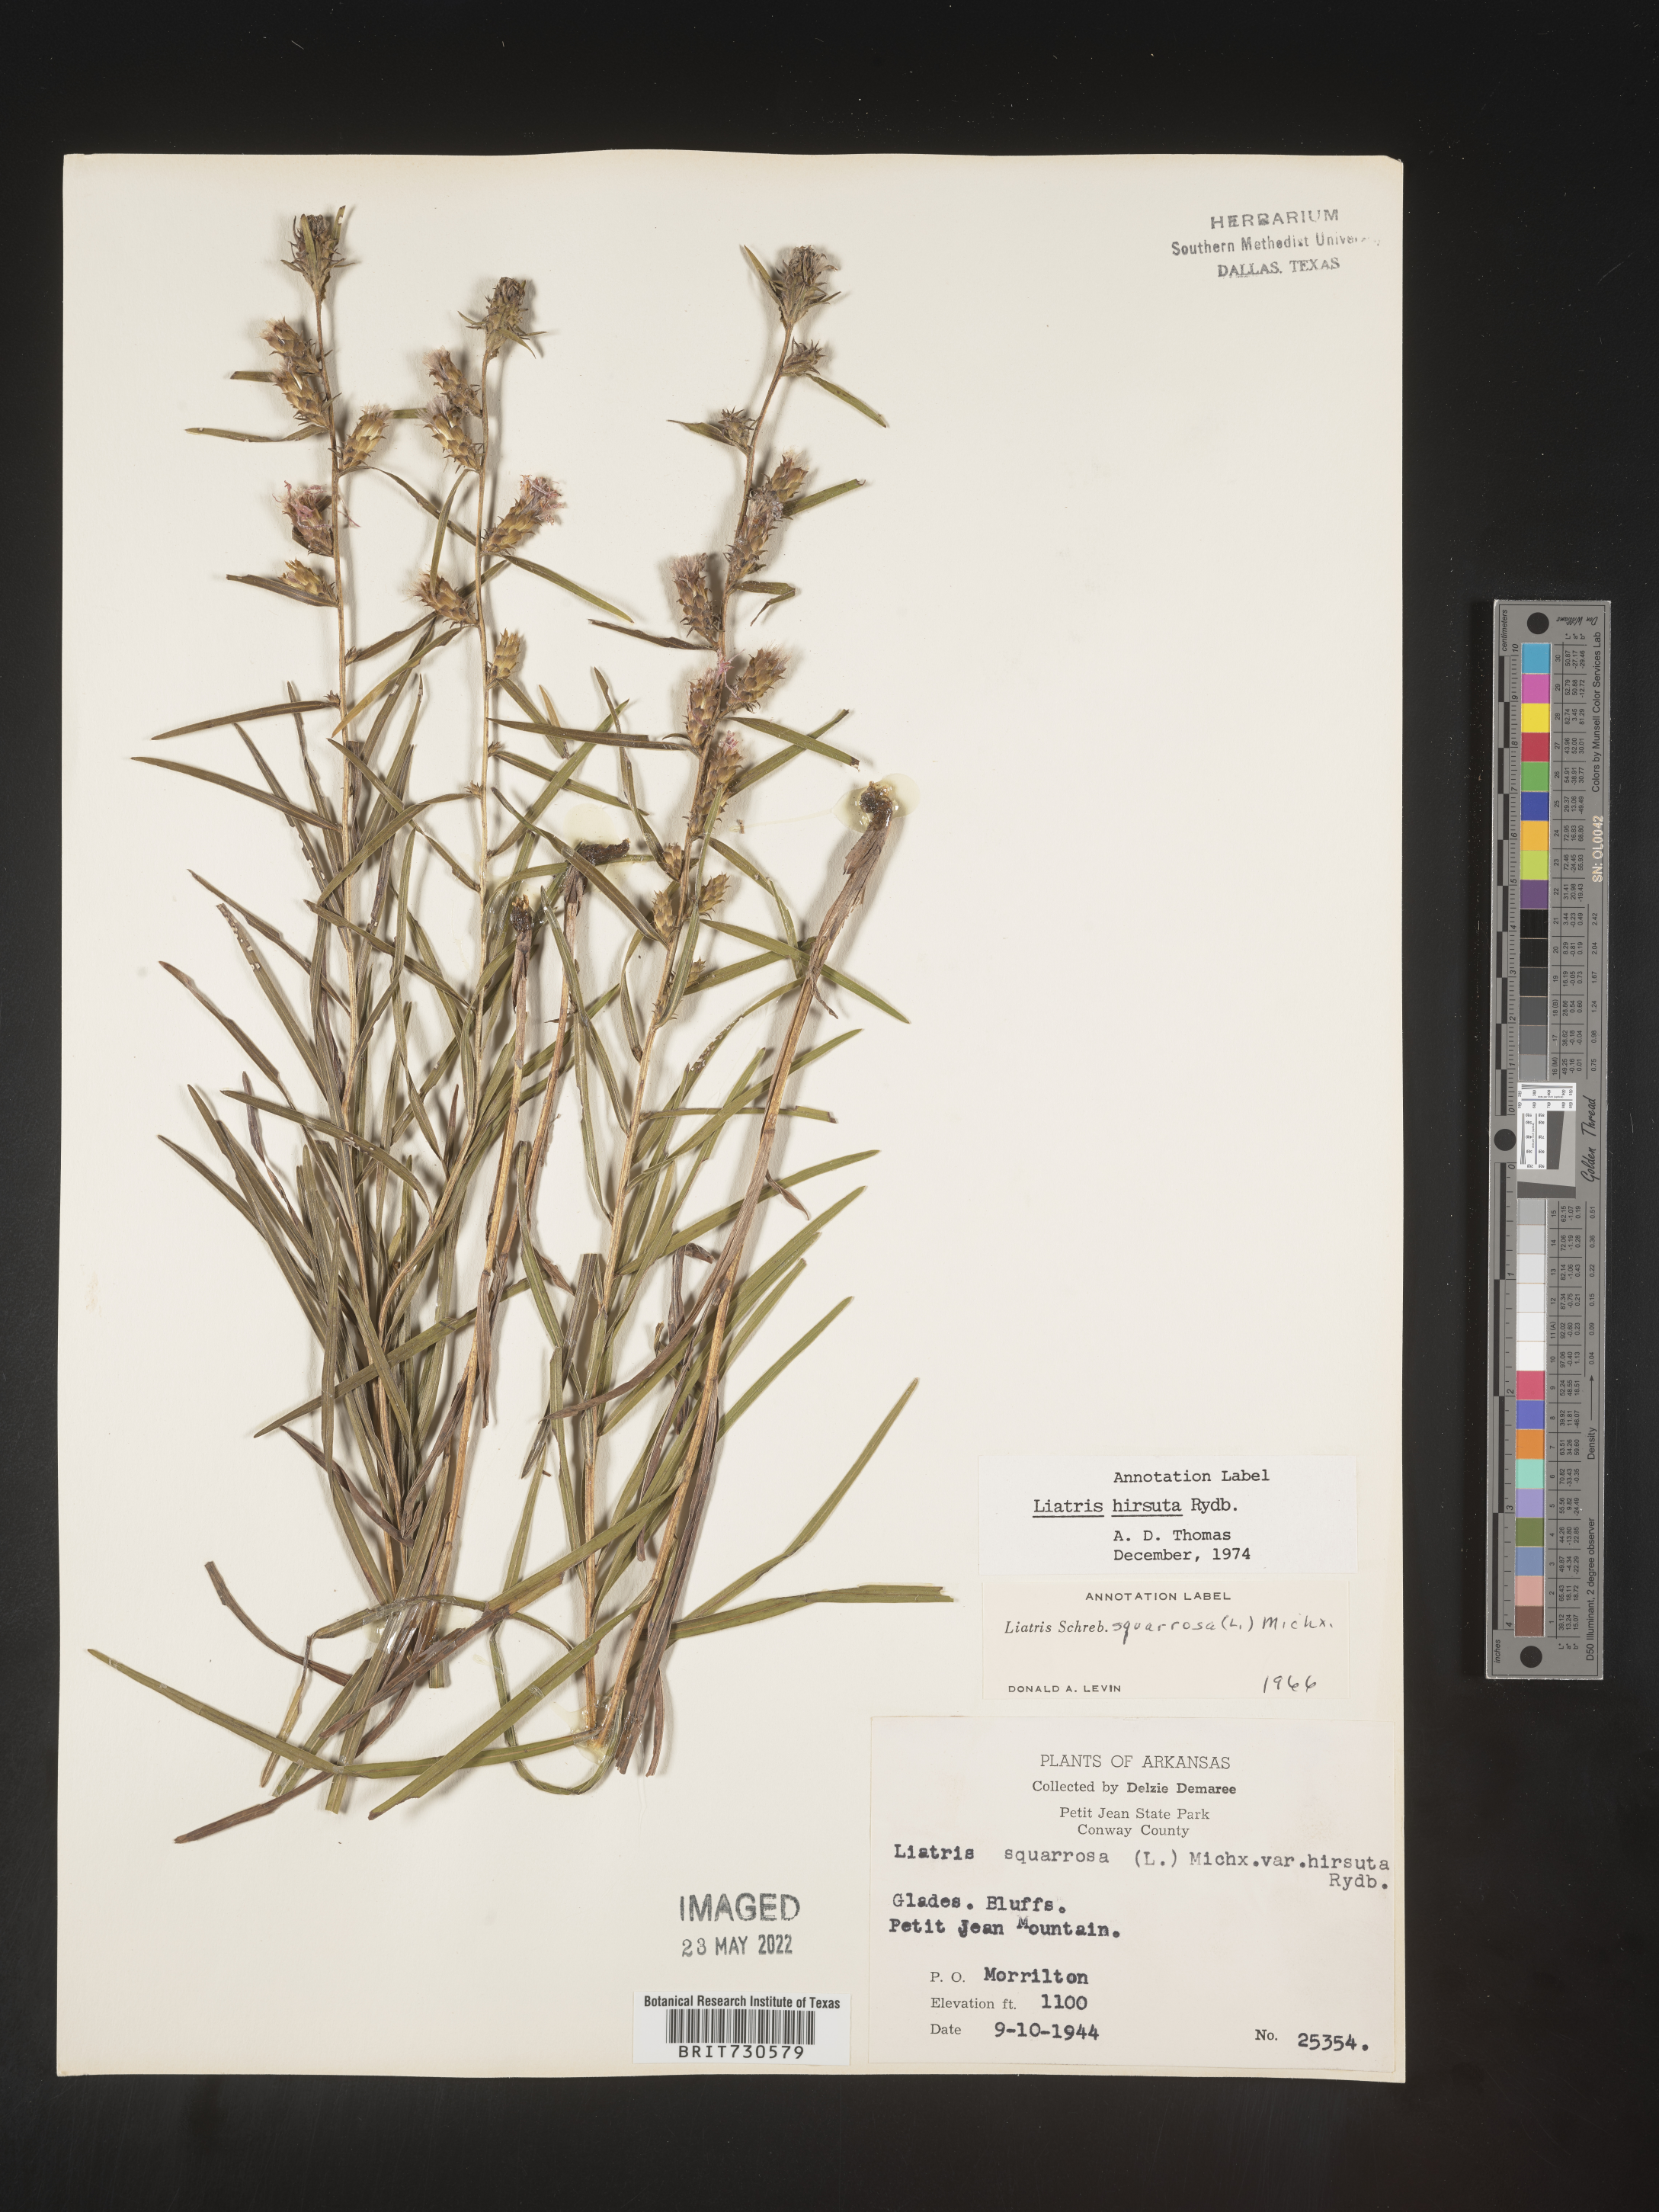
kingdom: Plantae
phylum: Tracheophyta
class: Magnoliopsida
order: Asterales
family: Asteraceae
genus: Liatris
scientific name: Liatris hirsuta
